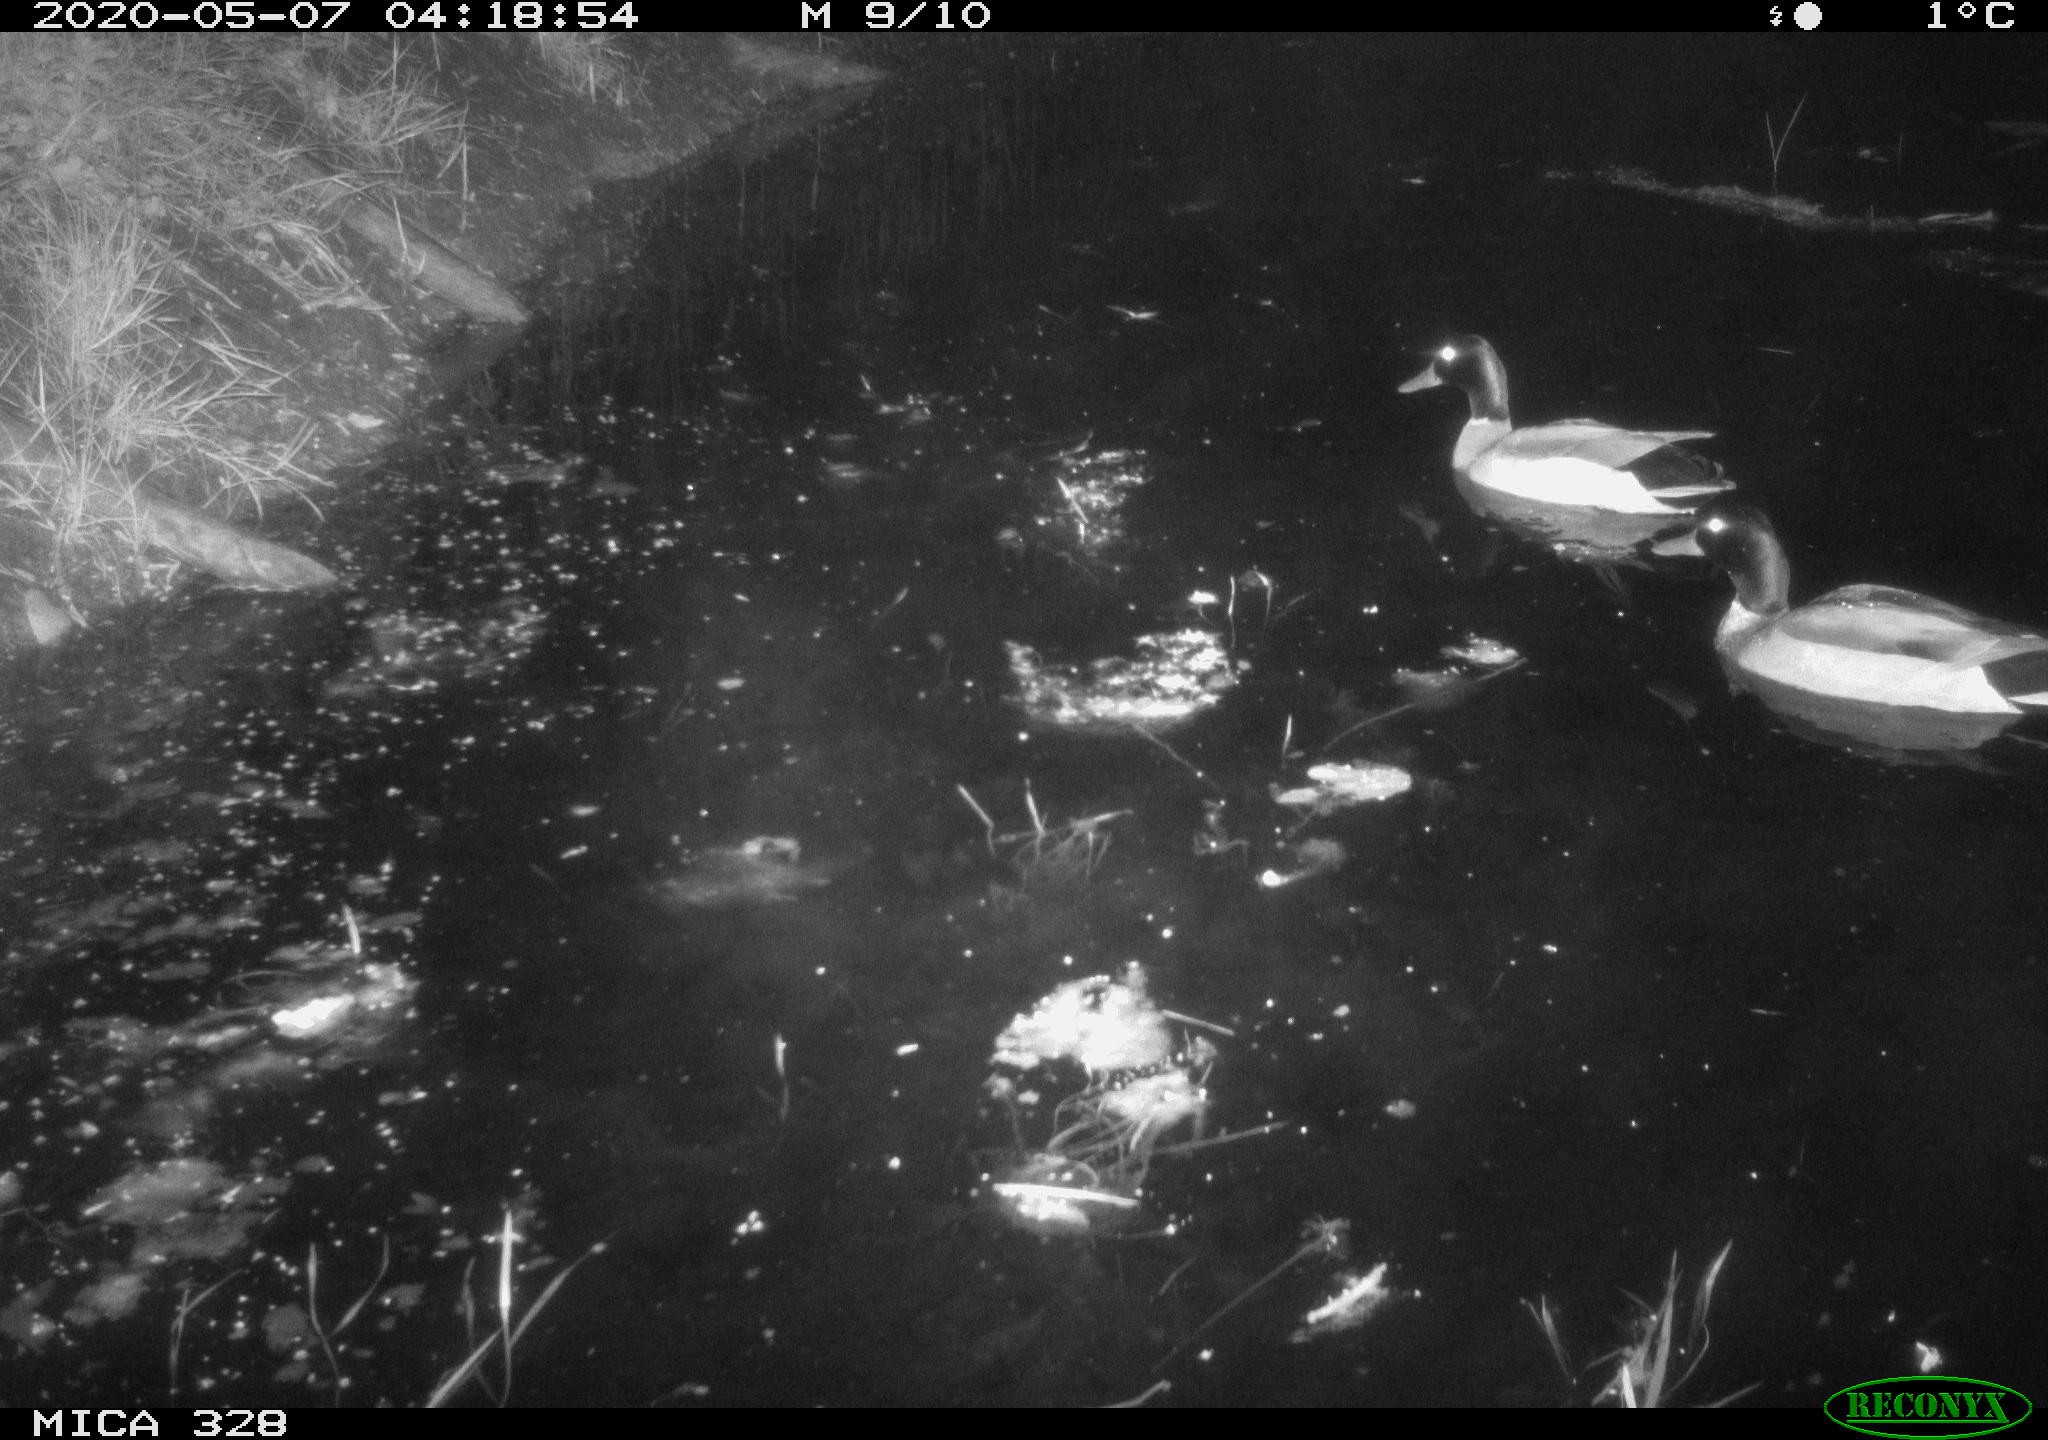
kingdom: Animalia
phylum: Chordata
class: Aves
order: Anseriformes
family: Anatidae
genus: Anas
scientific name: Anas platyrhynchos
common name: Mallard
